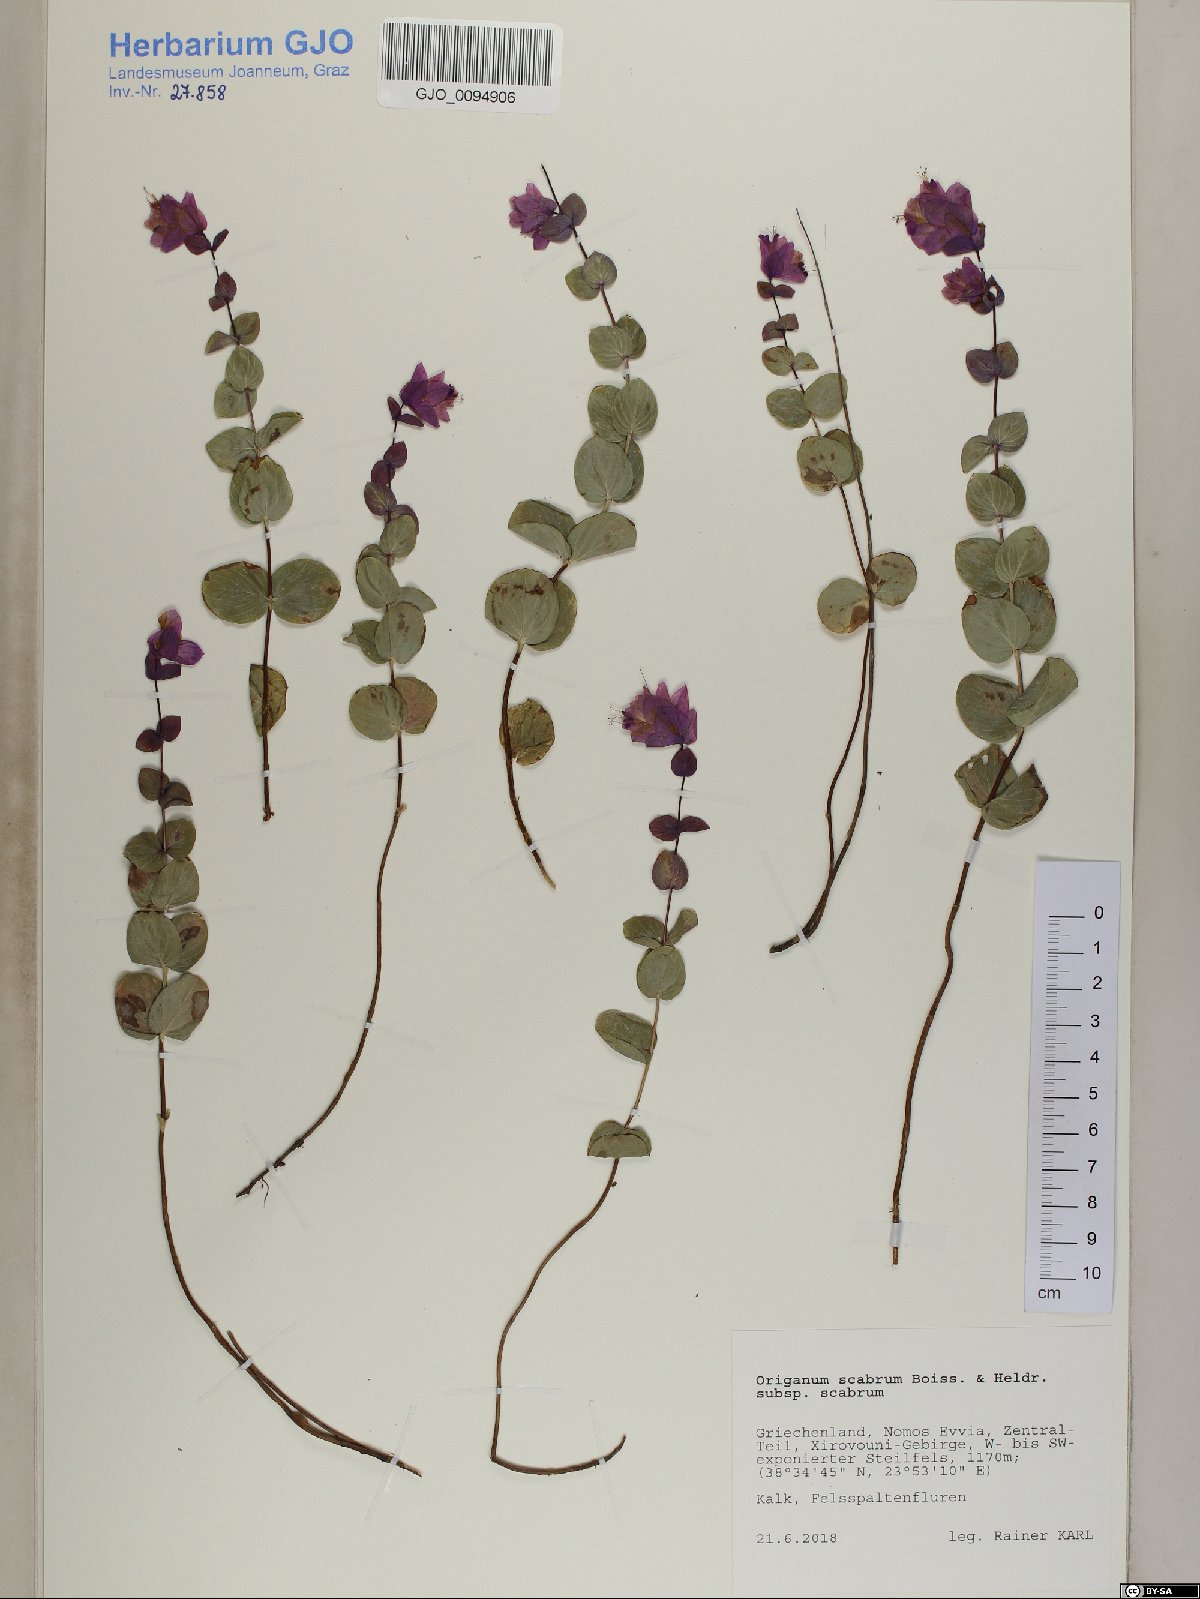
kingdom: Plantae
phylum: Tracheophyta
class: Magnoliopsida
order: Lamiales
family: Lamiaceae
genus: Origanum
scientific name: Origanum scabrum
